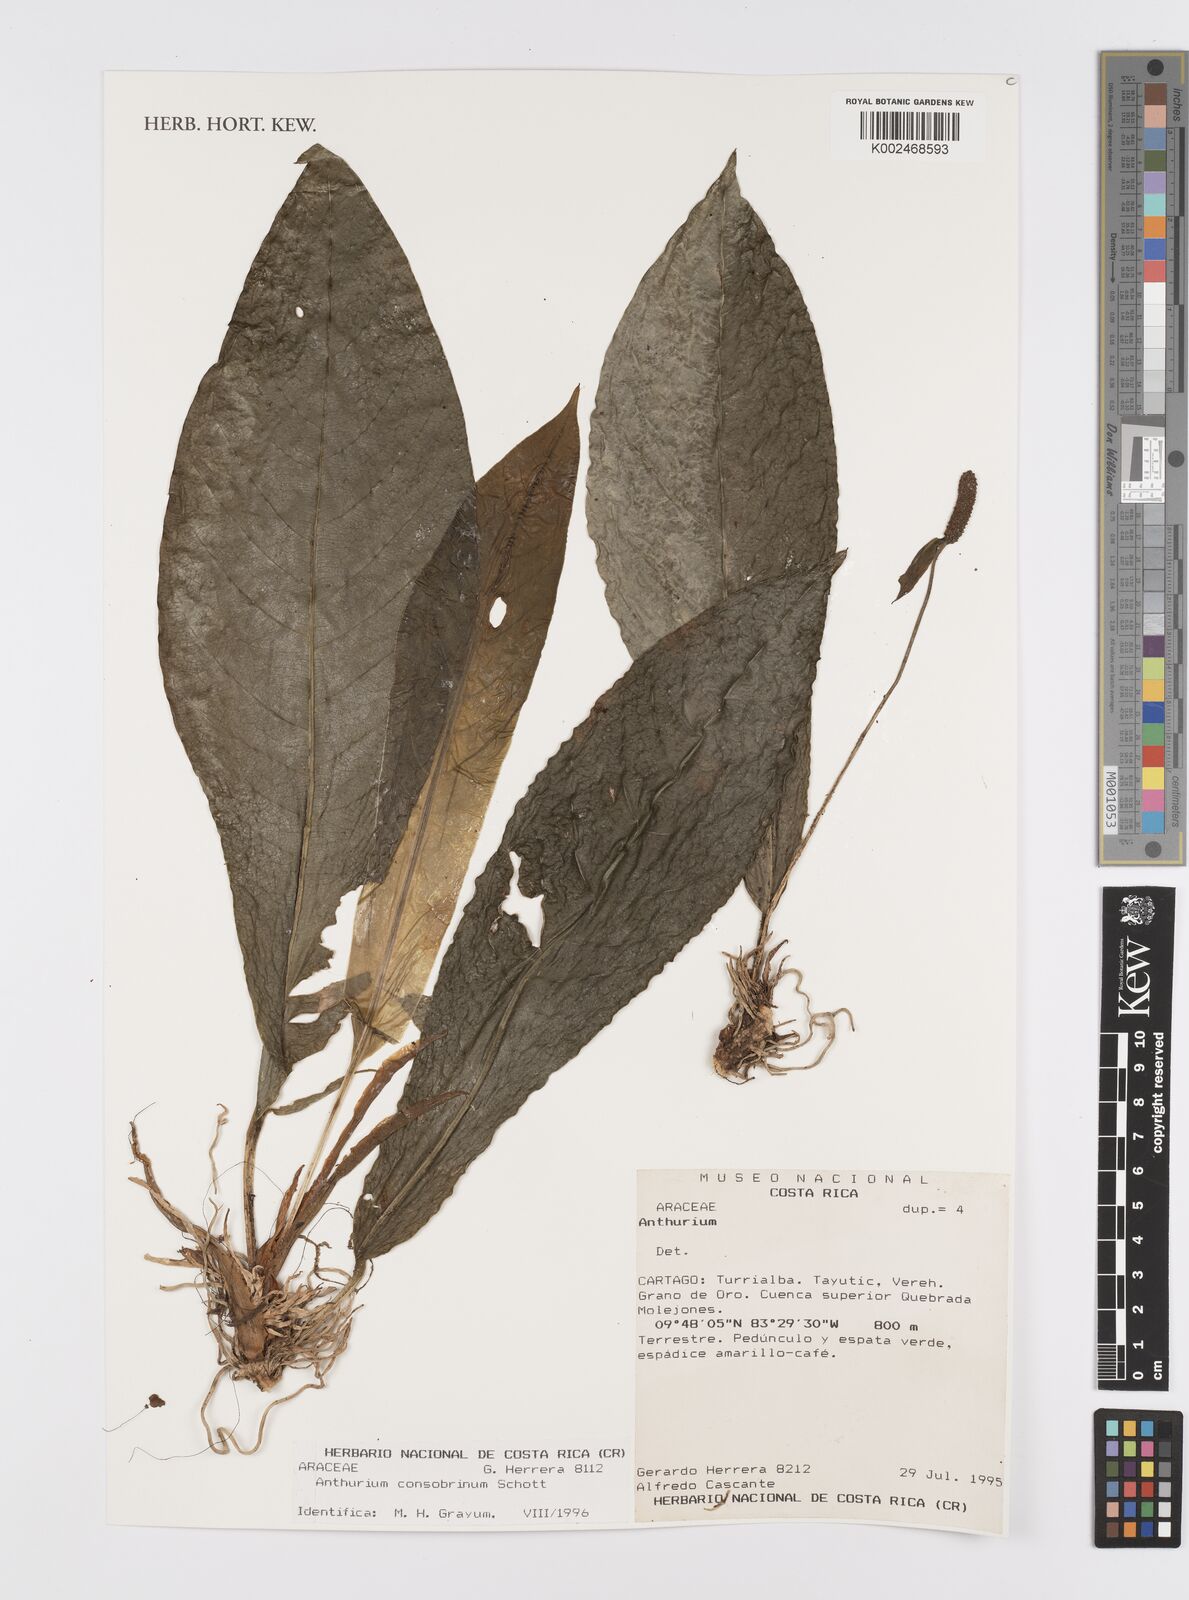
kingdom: Plantae
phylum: Tracheophyta
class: Liliopsida
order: Alismatales
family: Araceae
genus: Anthurium
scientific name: Anthurium consobrinum
